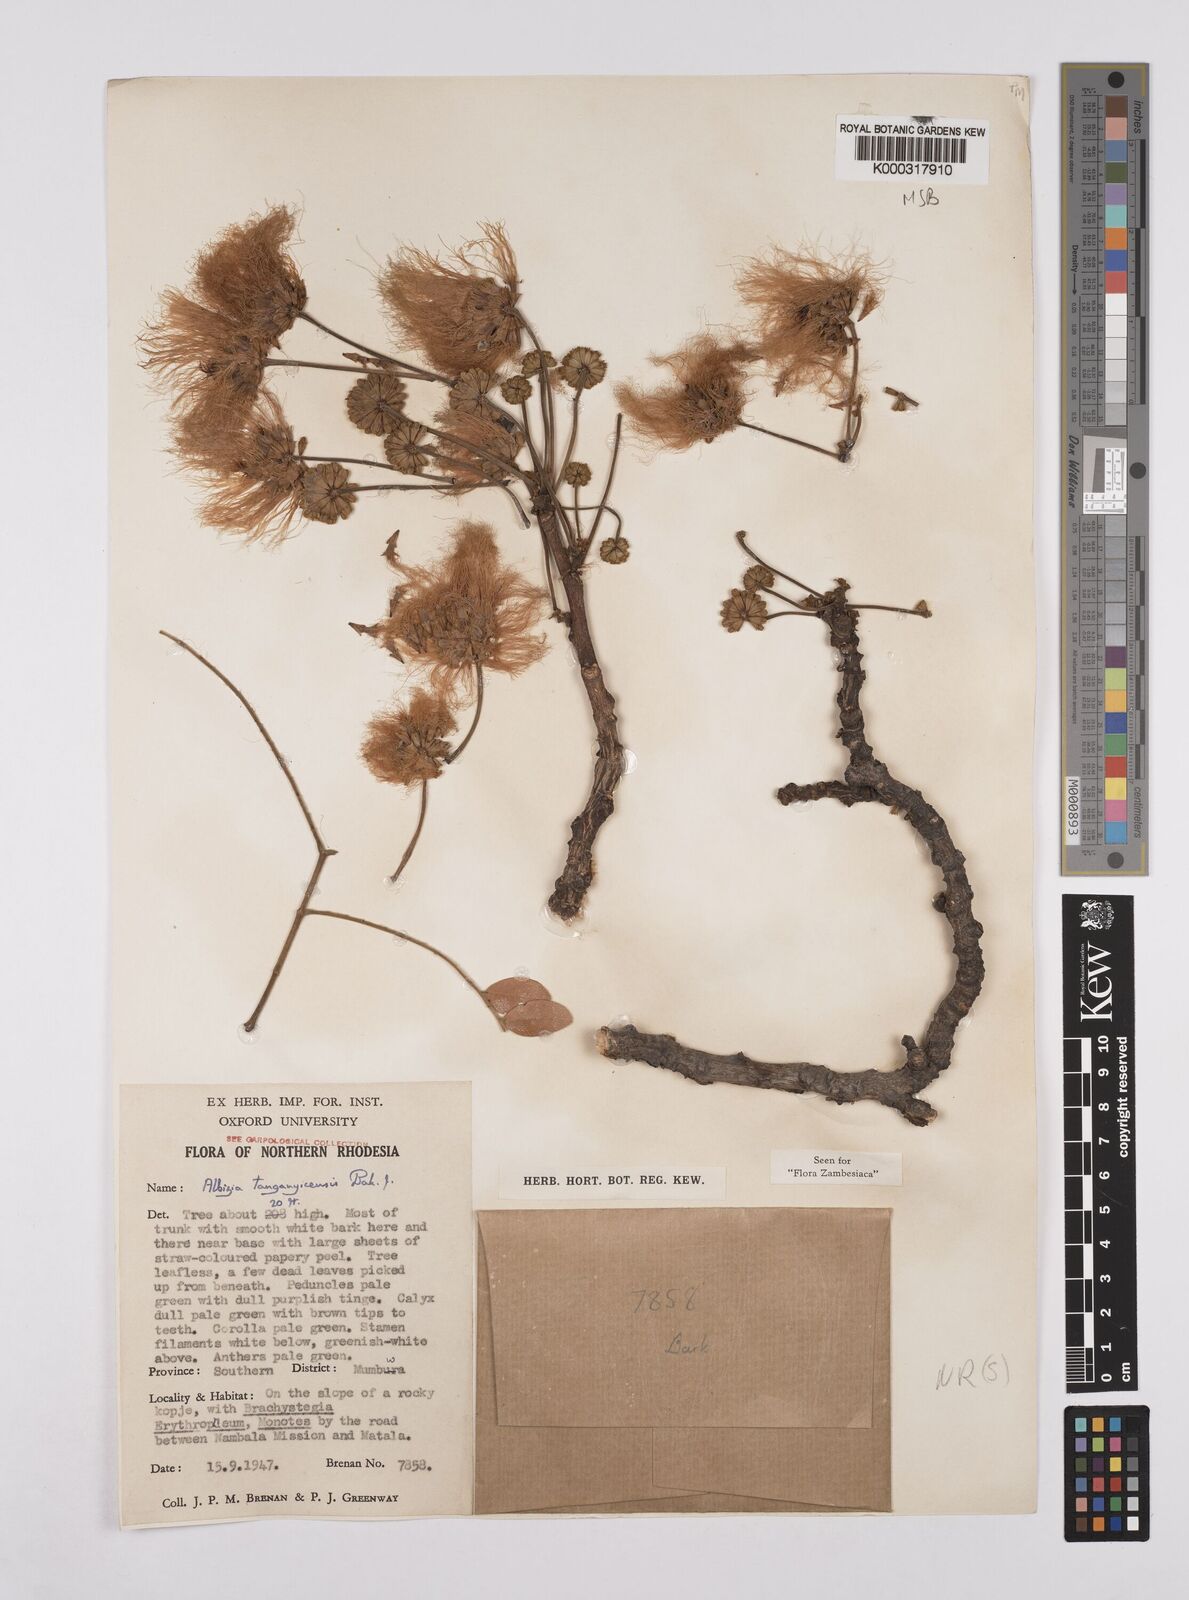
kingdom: Plantae
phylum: Tracheophyta
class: Magnoliopsida
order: Fabales
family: Fabaceae
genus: Albizia
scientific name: Albizia tanganyicensis
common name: Paperbark false thorn
